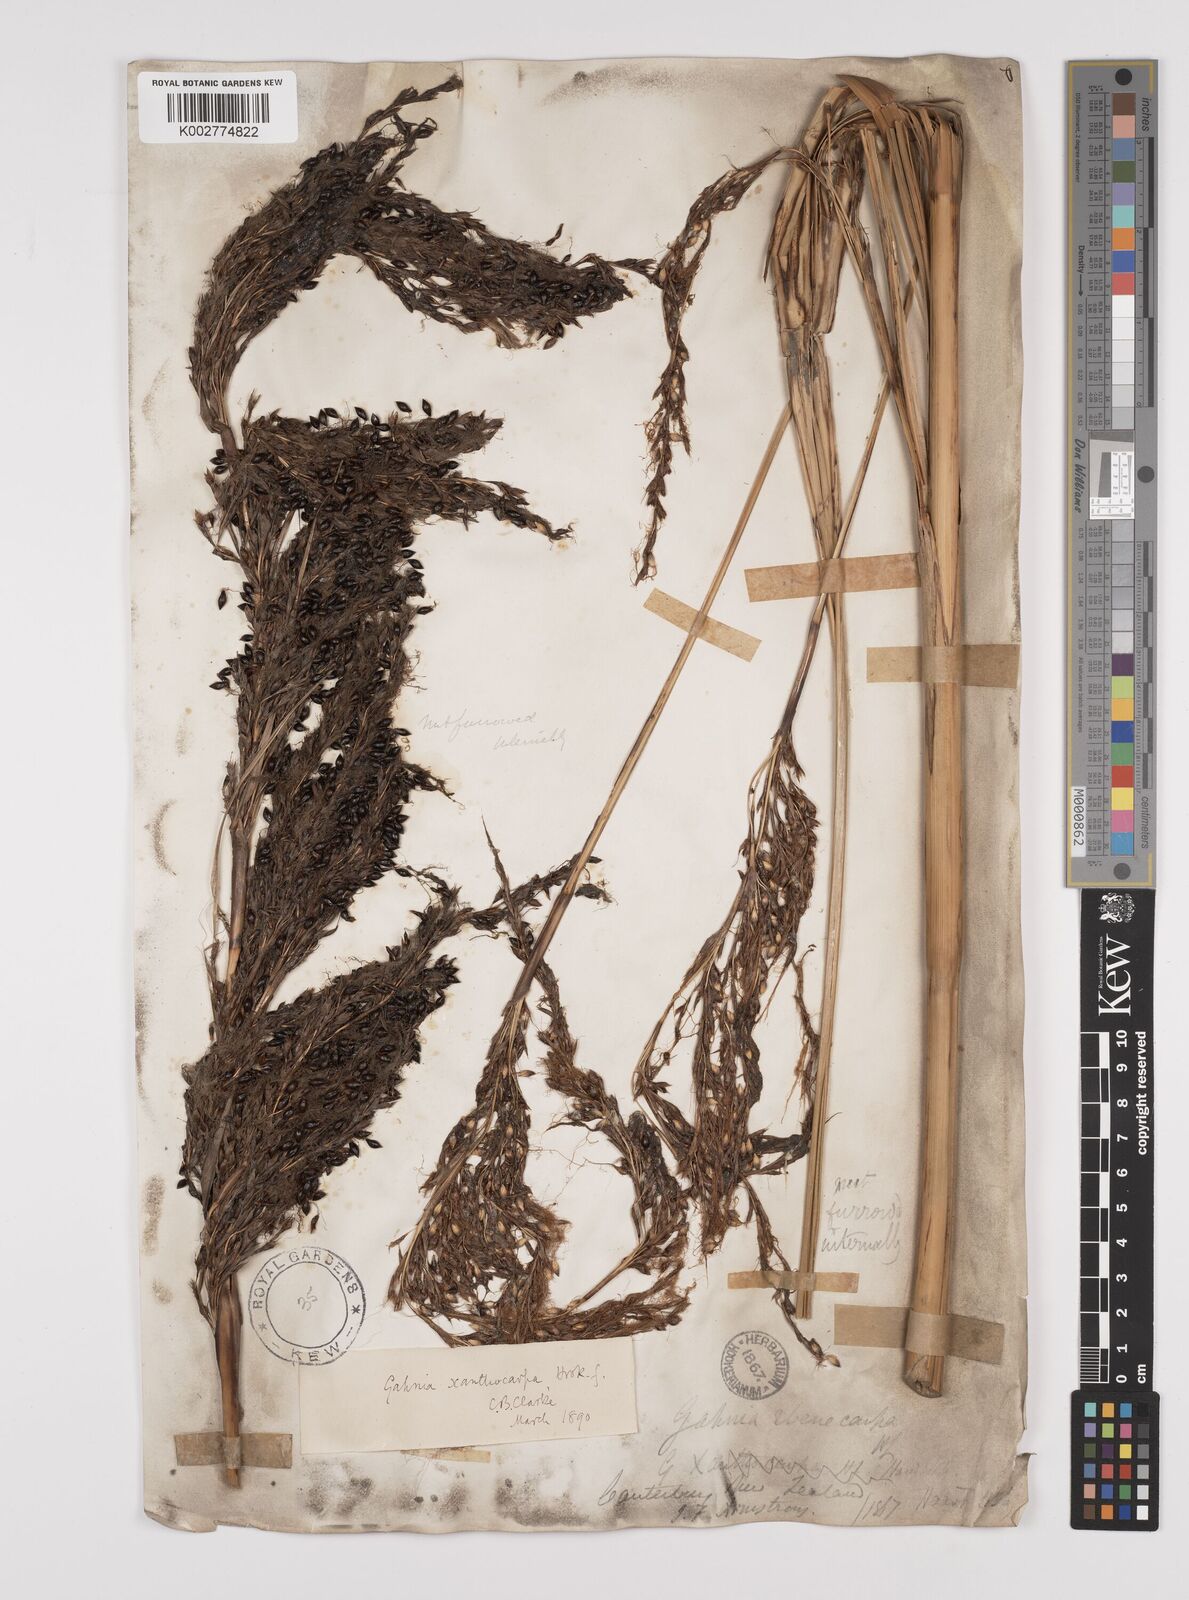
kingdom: Plantae
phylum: Tracheophyta
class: Liliopsida
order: Poales
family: Cyperaceae
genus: Gahnia
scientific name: Gahnia xanthocarpa
